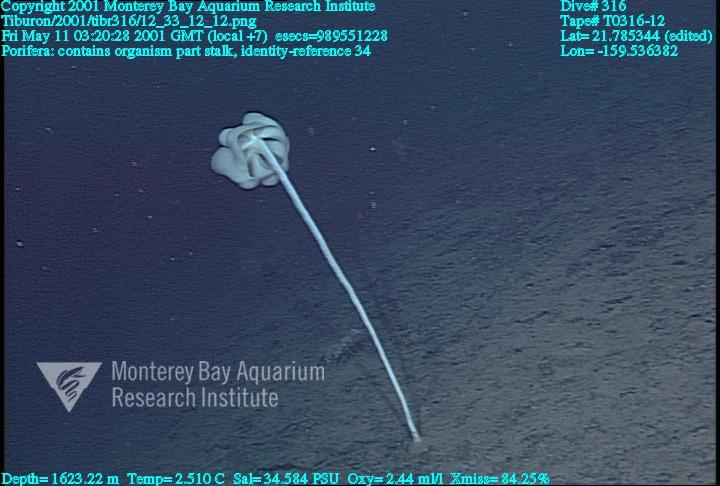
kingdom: Animalia
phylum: Porifera
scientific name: Porifera
